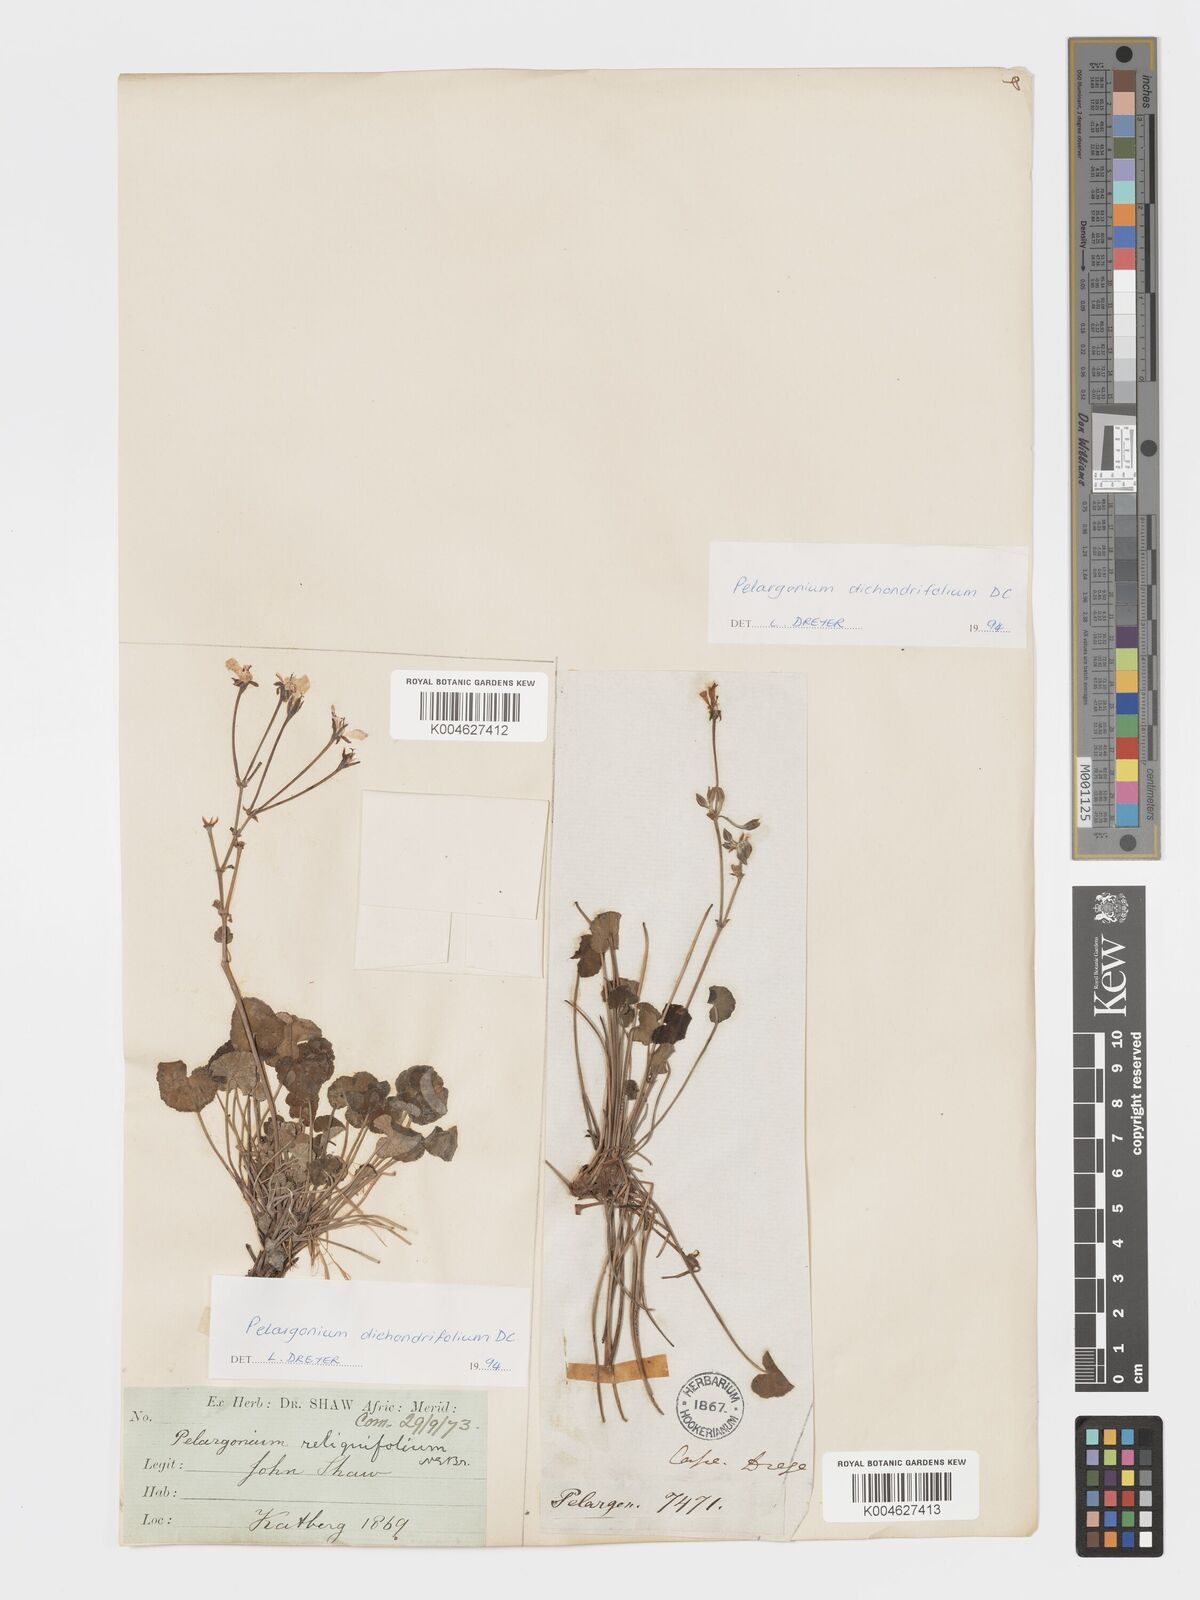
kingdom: Plantae
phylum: Tracheophyta
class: Magnoliopsida
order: Geraniales
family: Geraniaceae
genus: Pelargonium
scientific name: Pelargonium dichondrifolium
